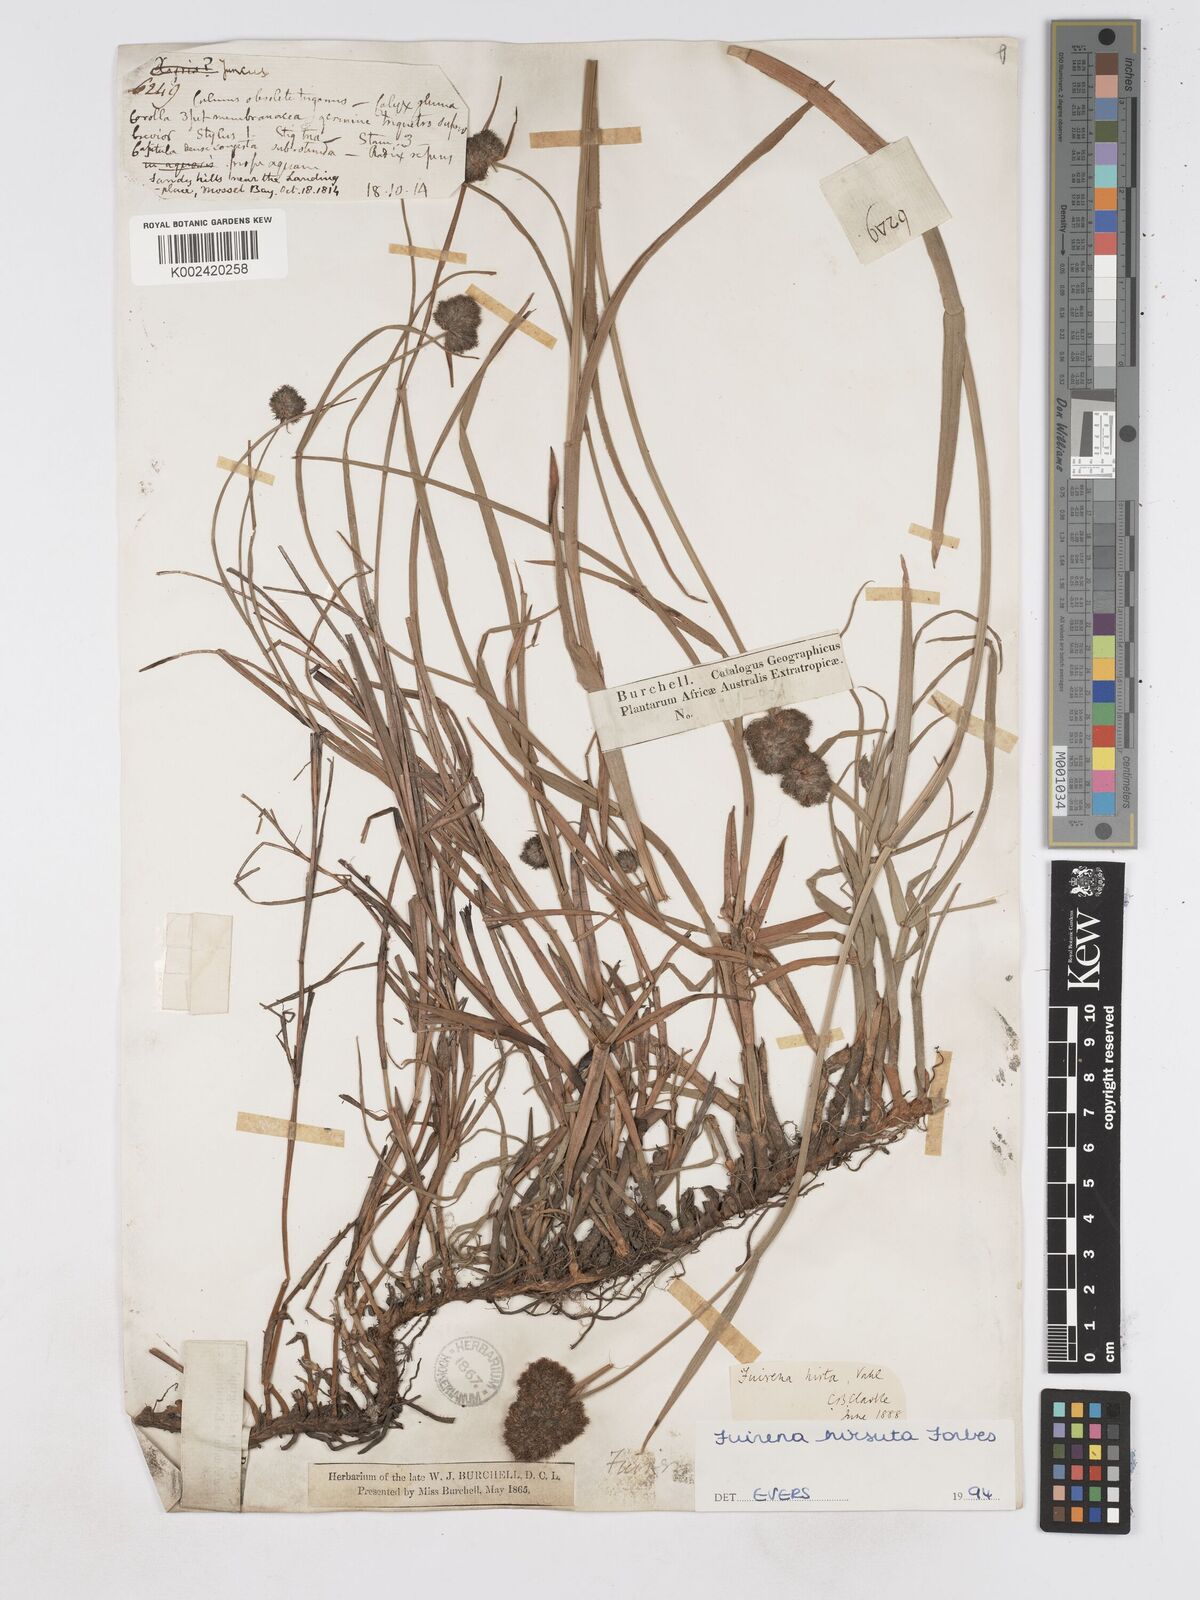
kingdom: Plantae
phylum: Tracheophyta
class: Liliopsida
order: Poales
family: Cyperaceae
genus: Fuirena
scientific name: Fuirena hirsuta
